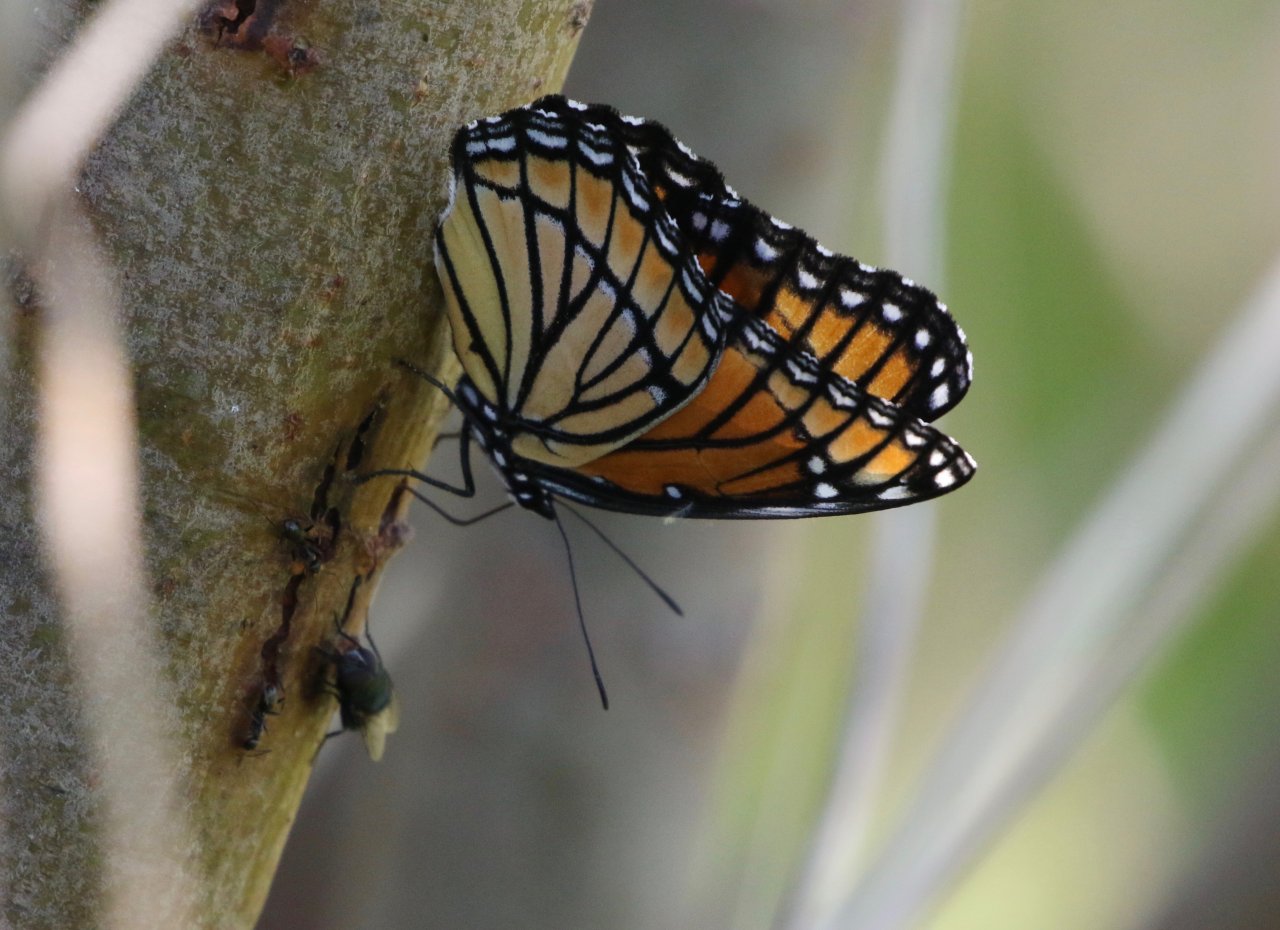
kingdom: Animalia
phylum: Arthropoda
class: Insecta
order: Lepidoptera
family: Nymphalidae
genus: Limenitis
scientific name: Limenitis archippus
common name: Viceroy
